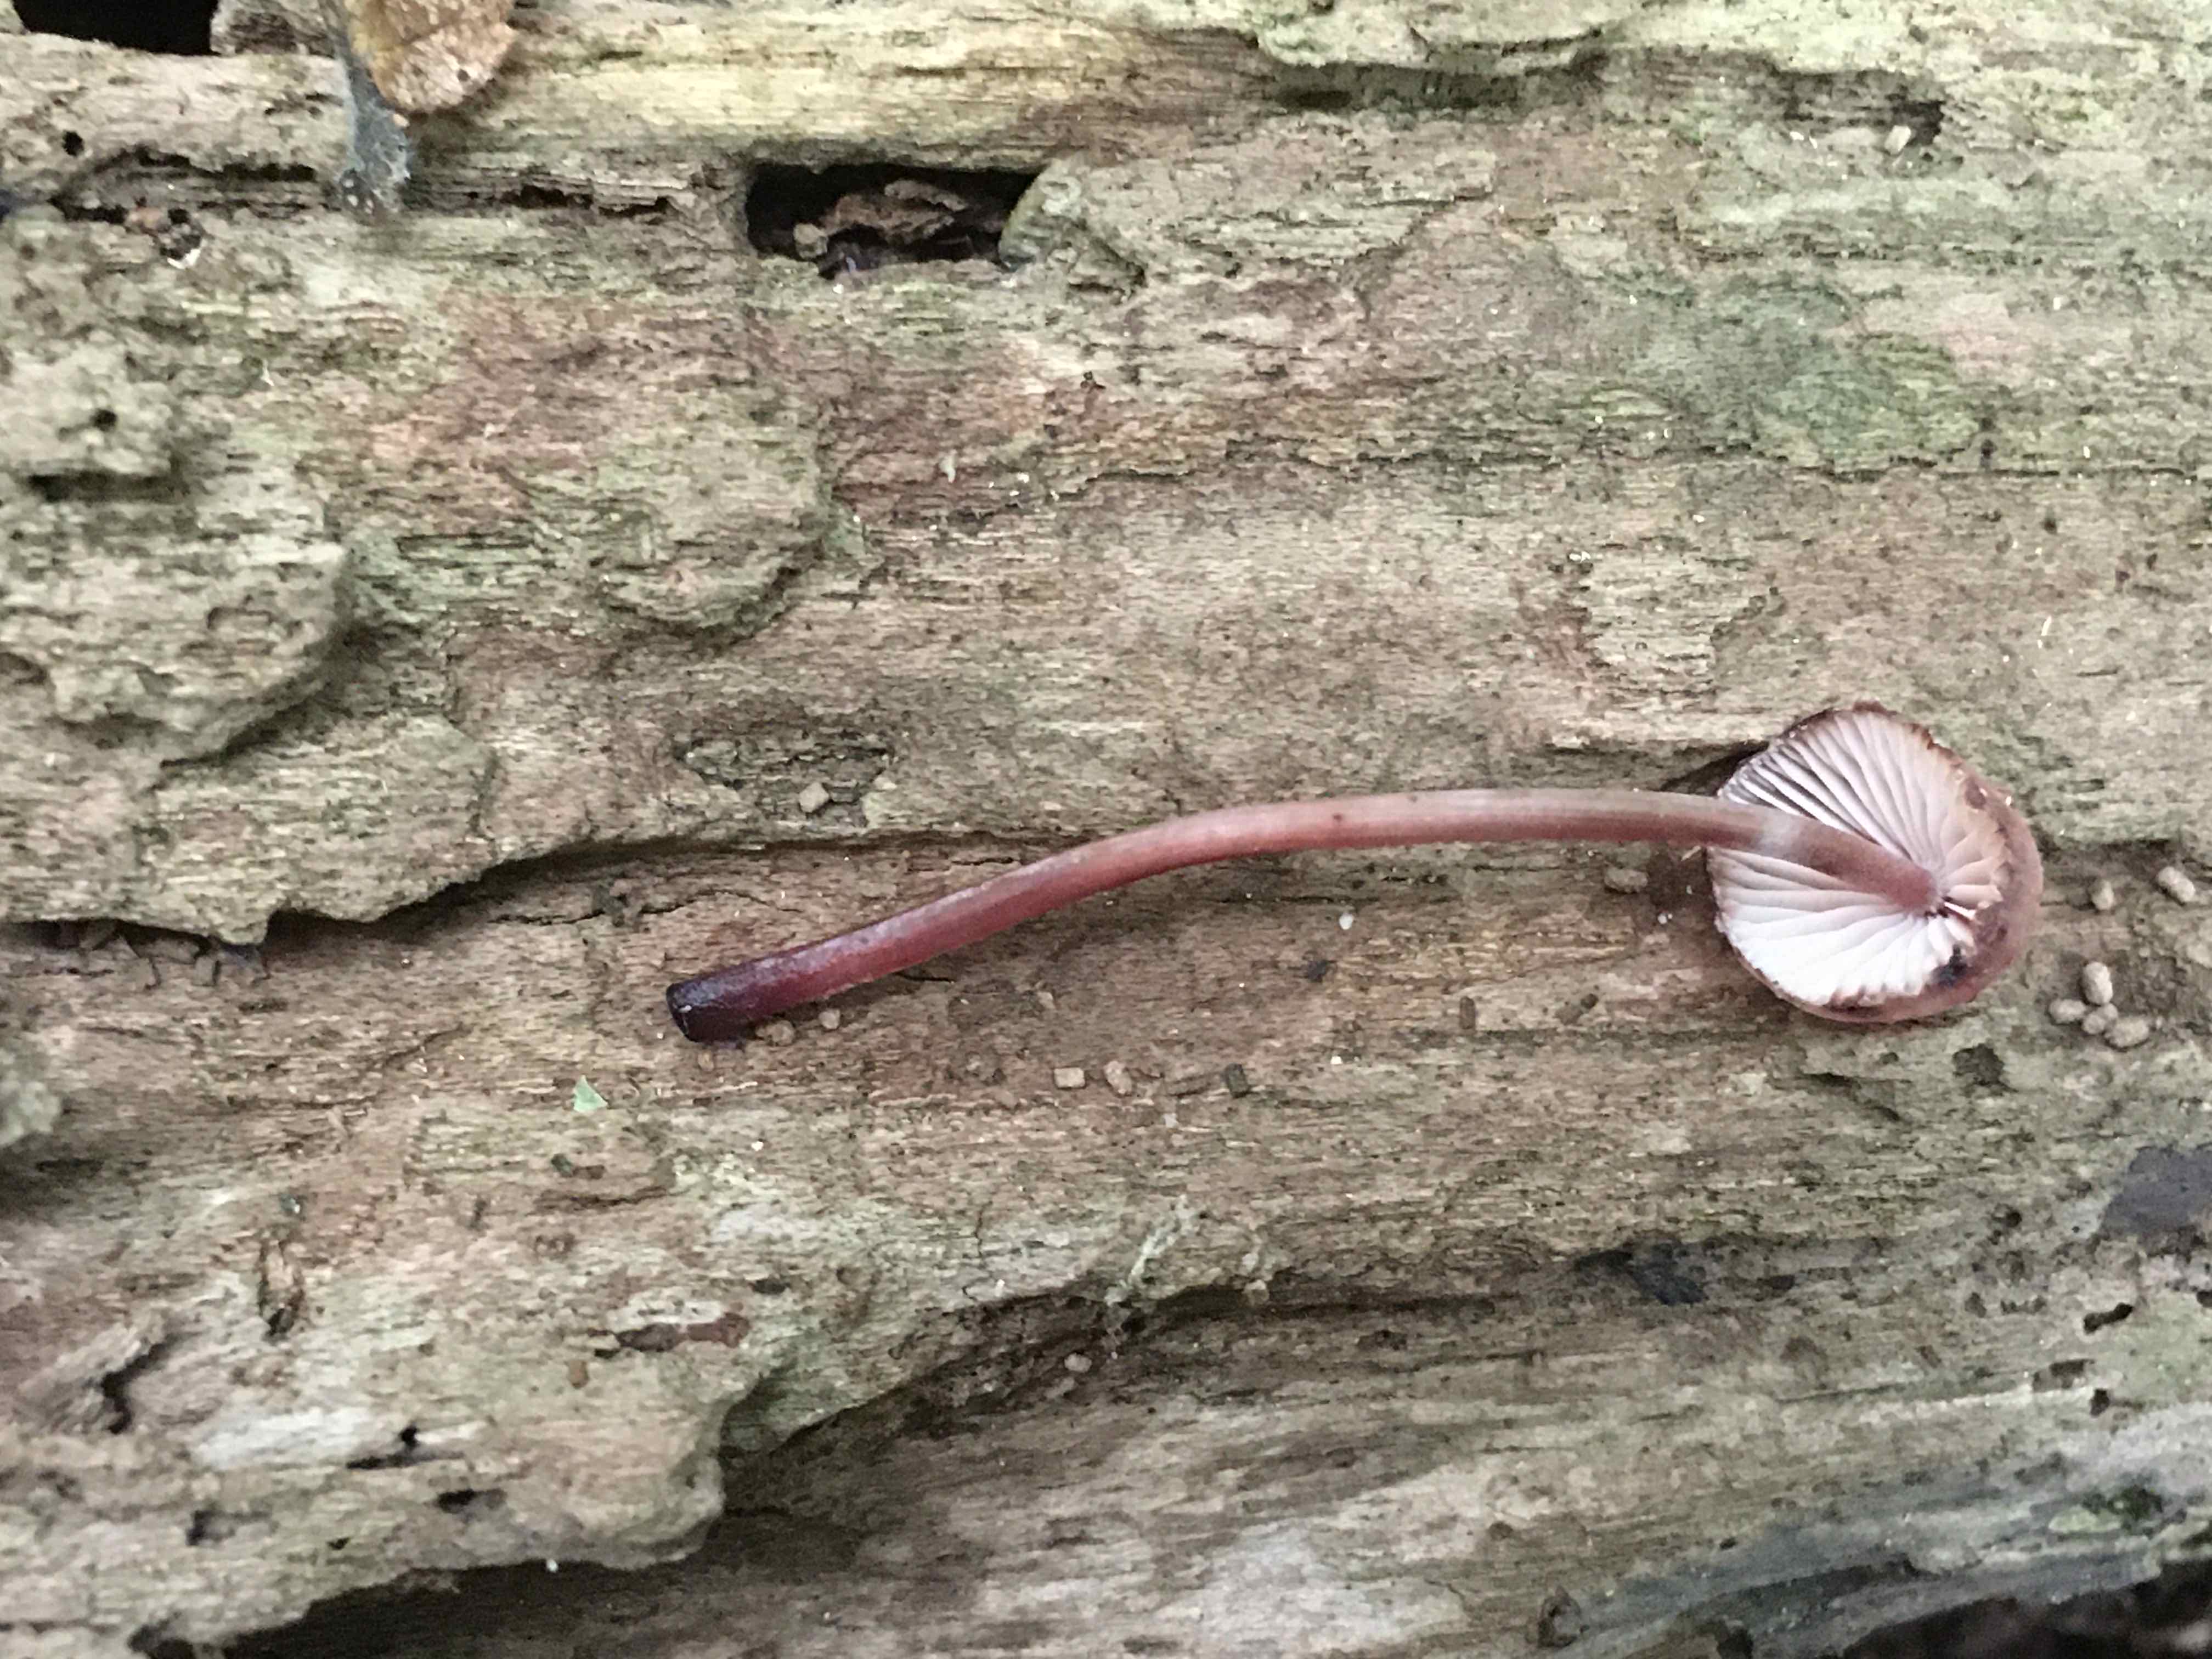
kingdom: Fungi
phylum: Basidiomycota
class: Agaricomycetes
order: Agaricales
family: Mycenaceae
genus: Mycena
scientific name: Mycena haematopus
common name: blødende huesvamp
